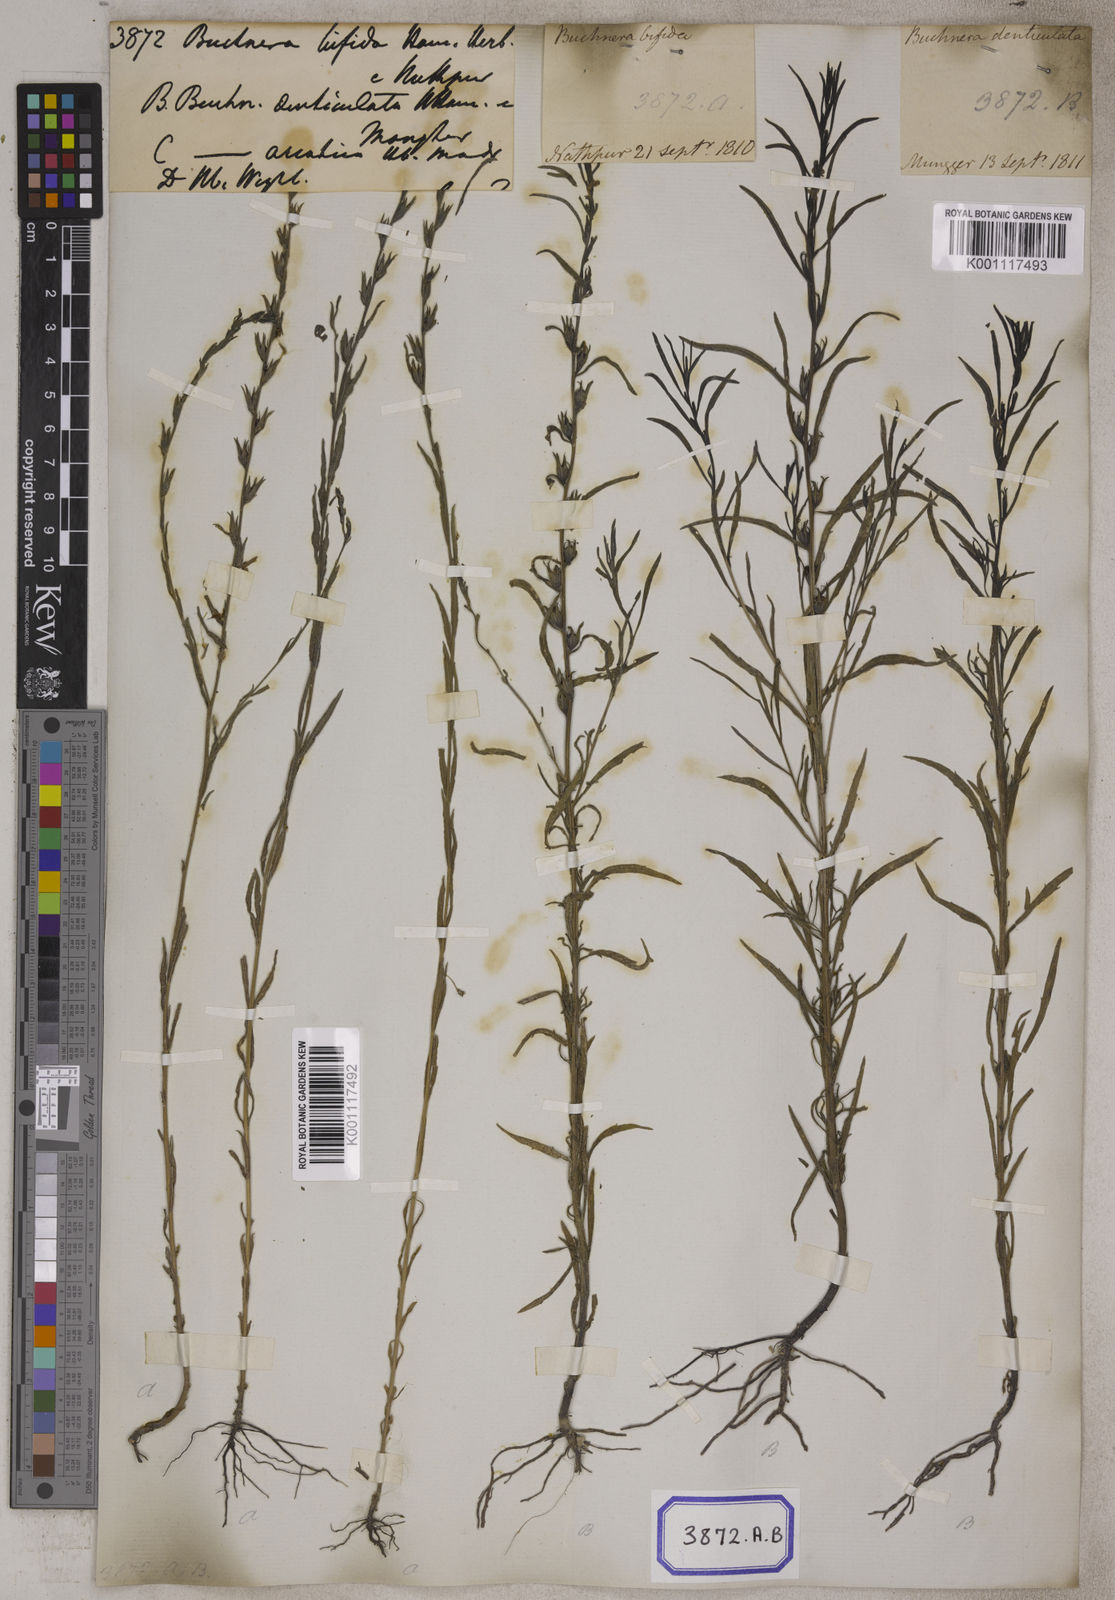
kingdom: Plantae
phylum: Tracheophyta
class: Magnoliopsida
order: Lamiales
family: Orobanchaceae
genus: Striga
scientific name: Striga angustifolia
